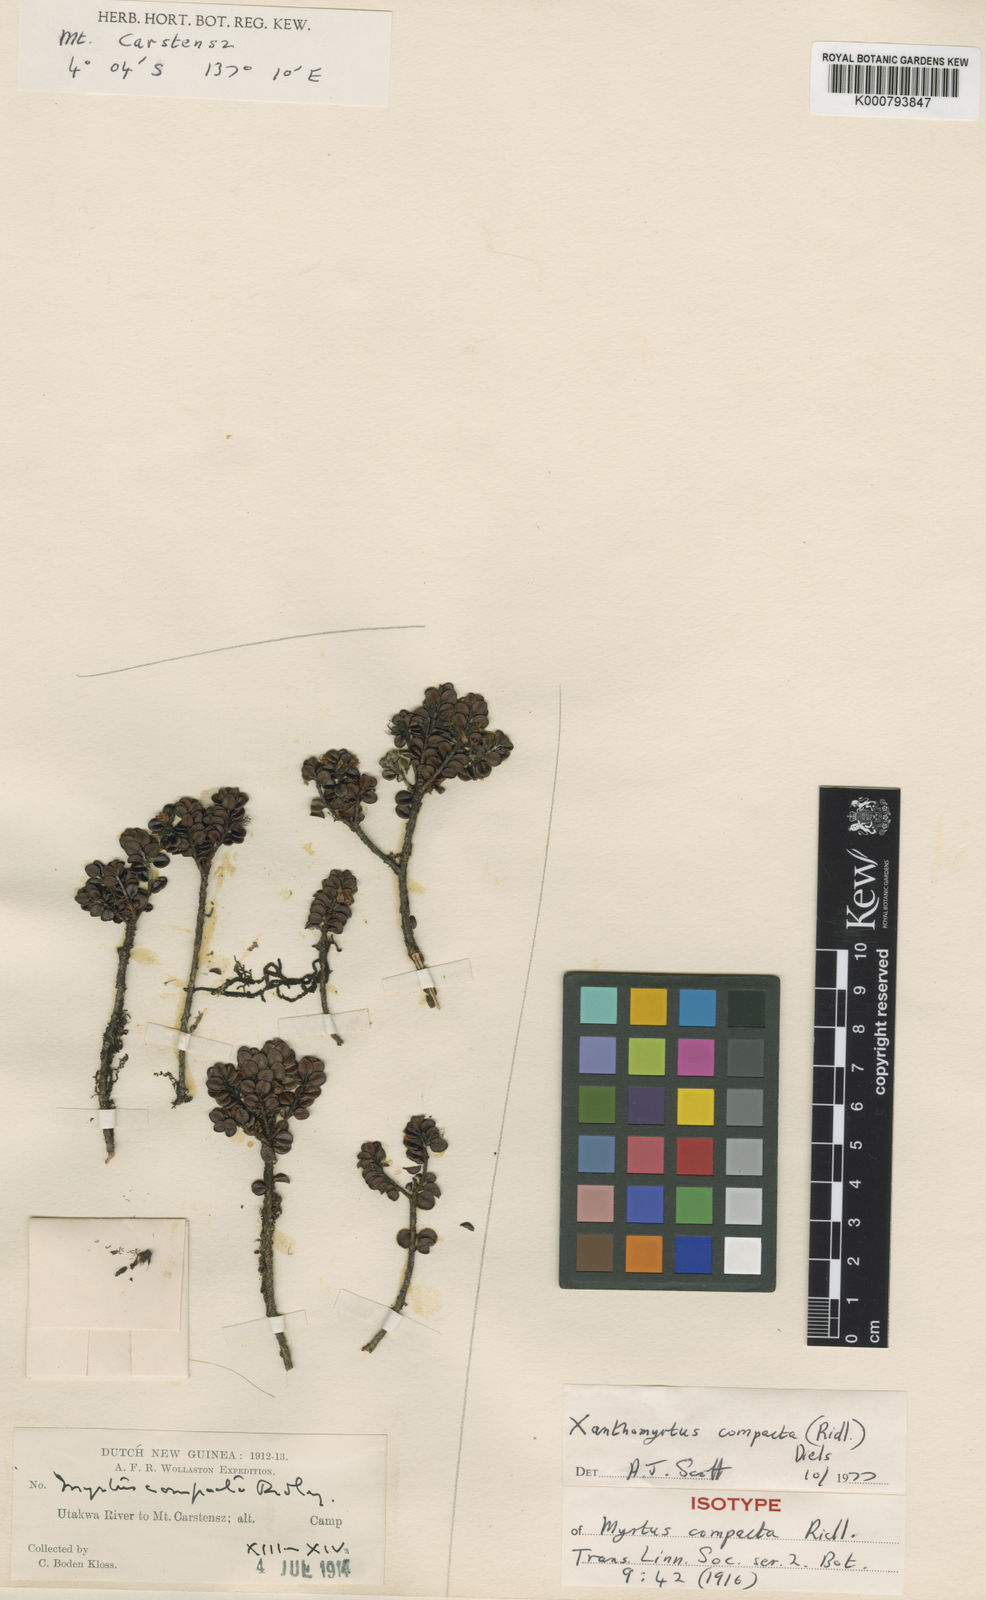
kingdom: Plantae
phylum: Tracheophyta
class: Magnoliopsida
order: Myrtales
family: Myrtaceae
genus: Xanthomyrtus
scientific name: Xanthomyrtus compacta
